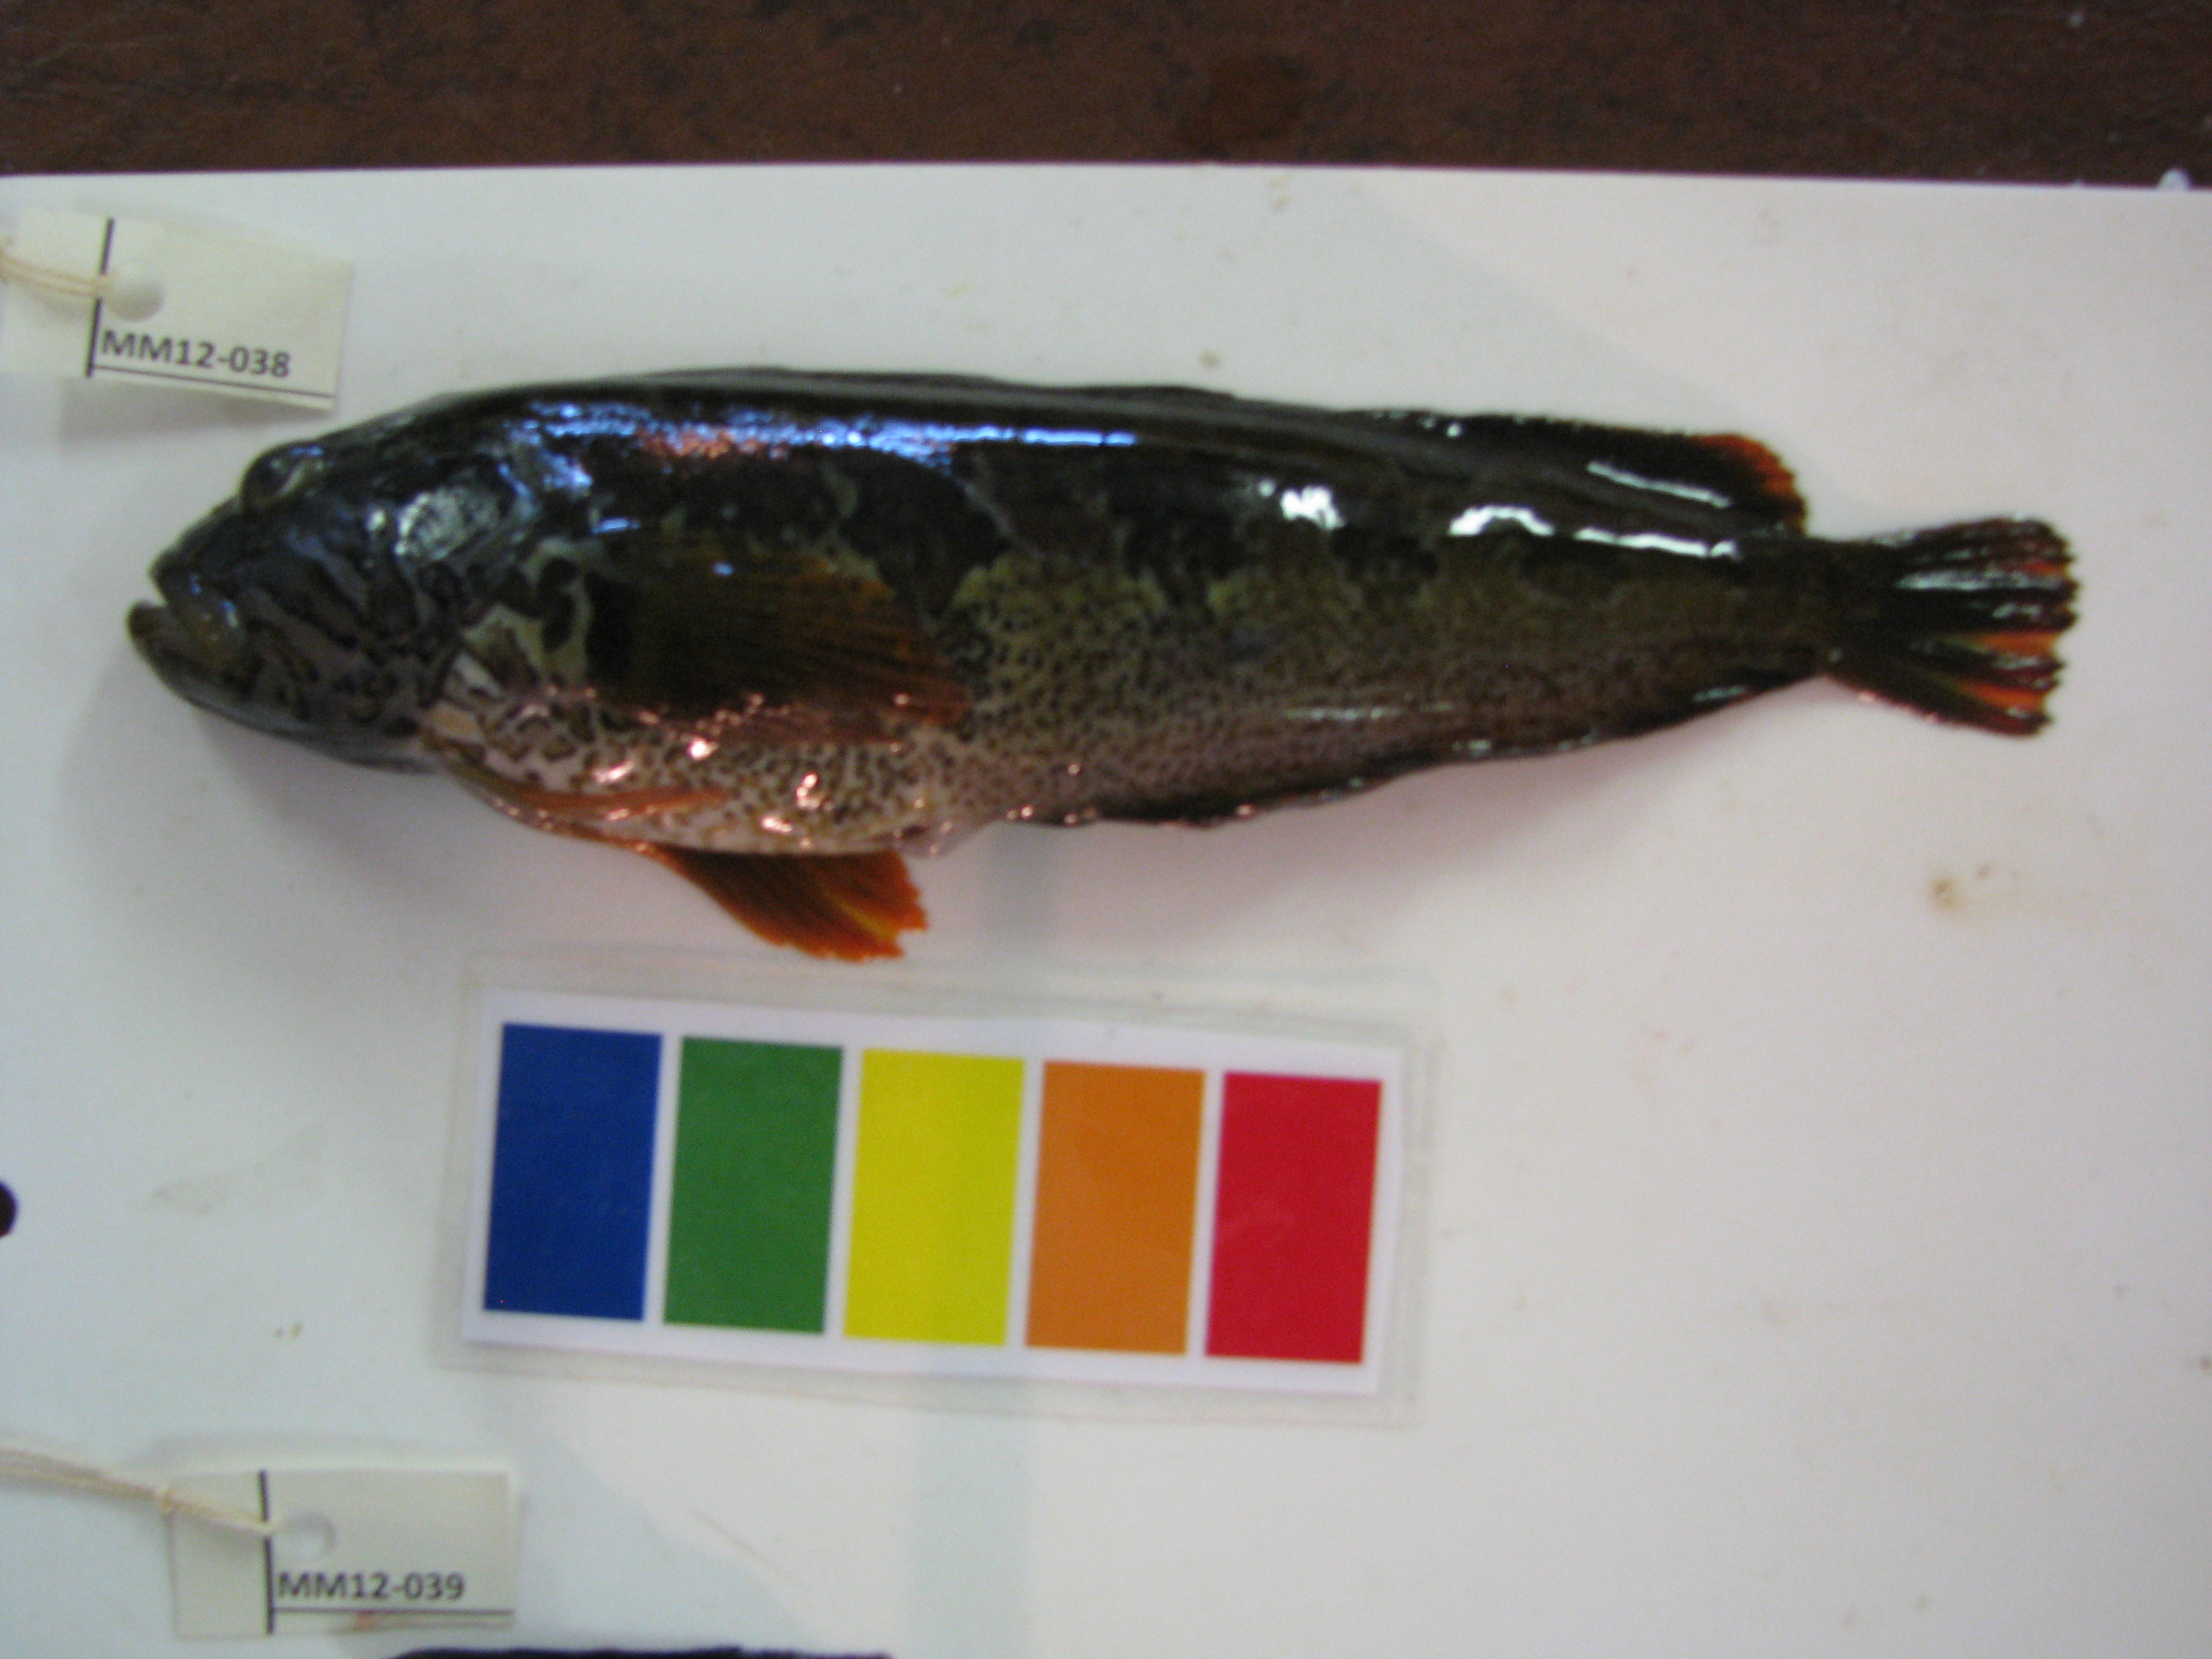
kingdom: Animalia
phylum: Chordata
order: Perciformes
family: Clinidae
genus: Clinus
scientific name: Clinus superciliosus
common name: Super klipfish
